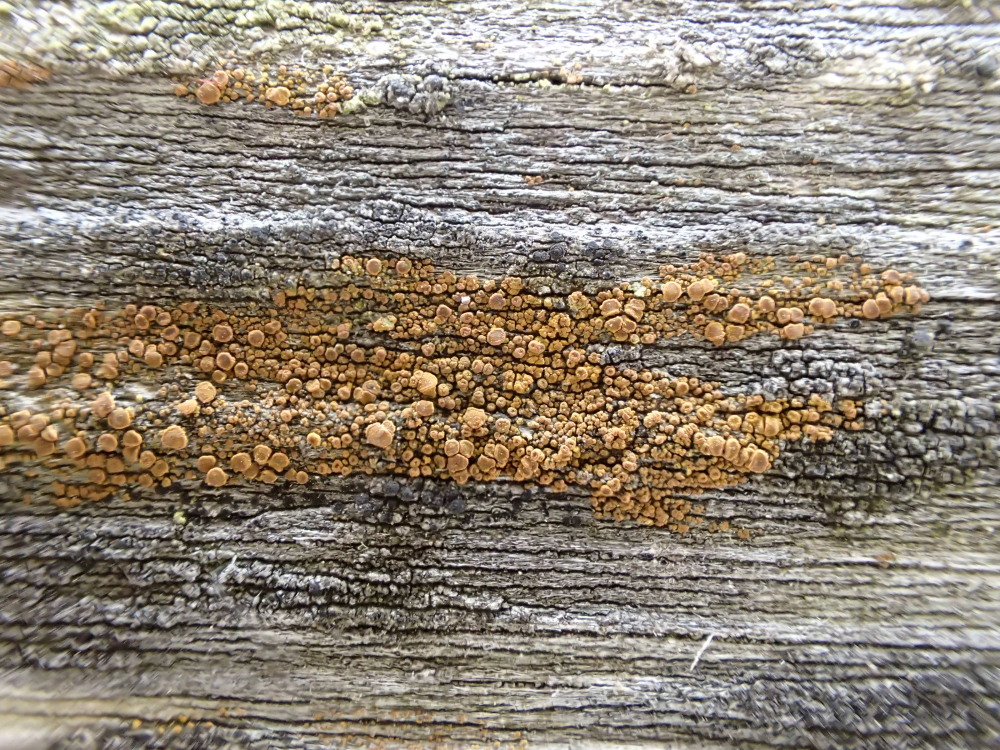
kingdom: Fungi
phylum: Ascomycota
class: Candelariomycetes
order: Candelariales
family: Candelariaceae
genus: Candelariella
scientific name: Candelariella vitellina
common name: almindelig æggeblommelav
